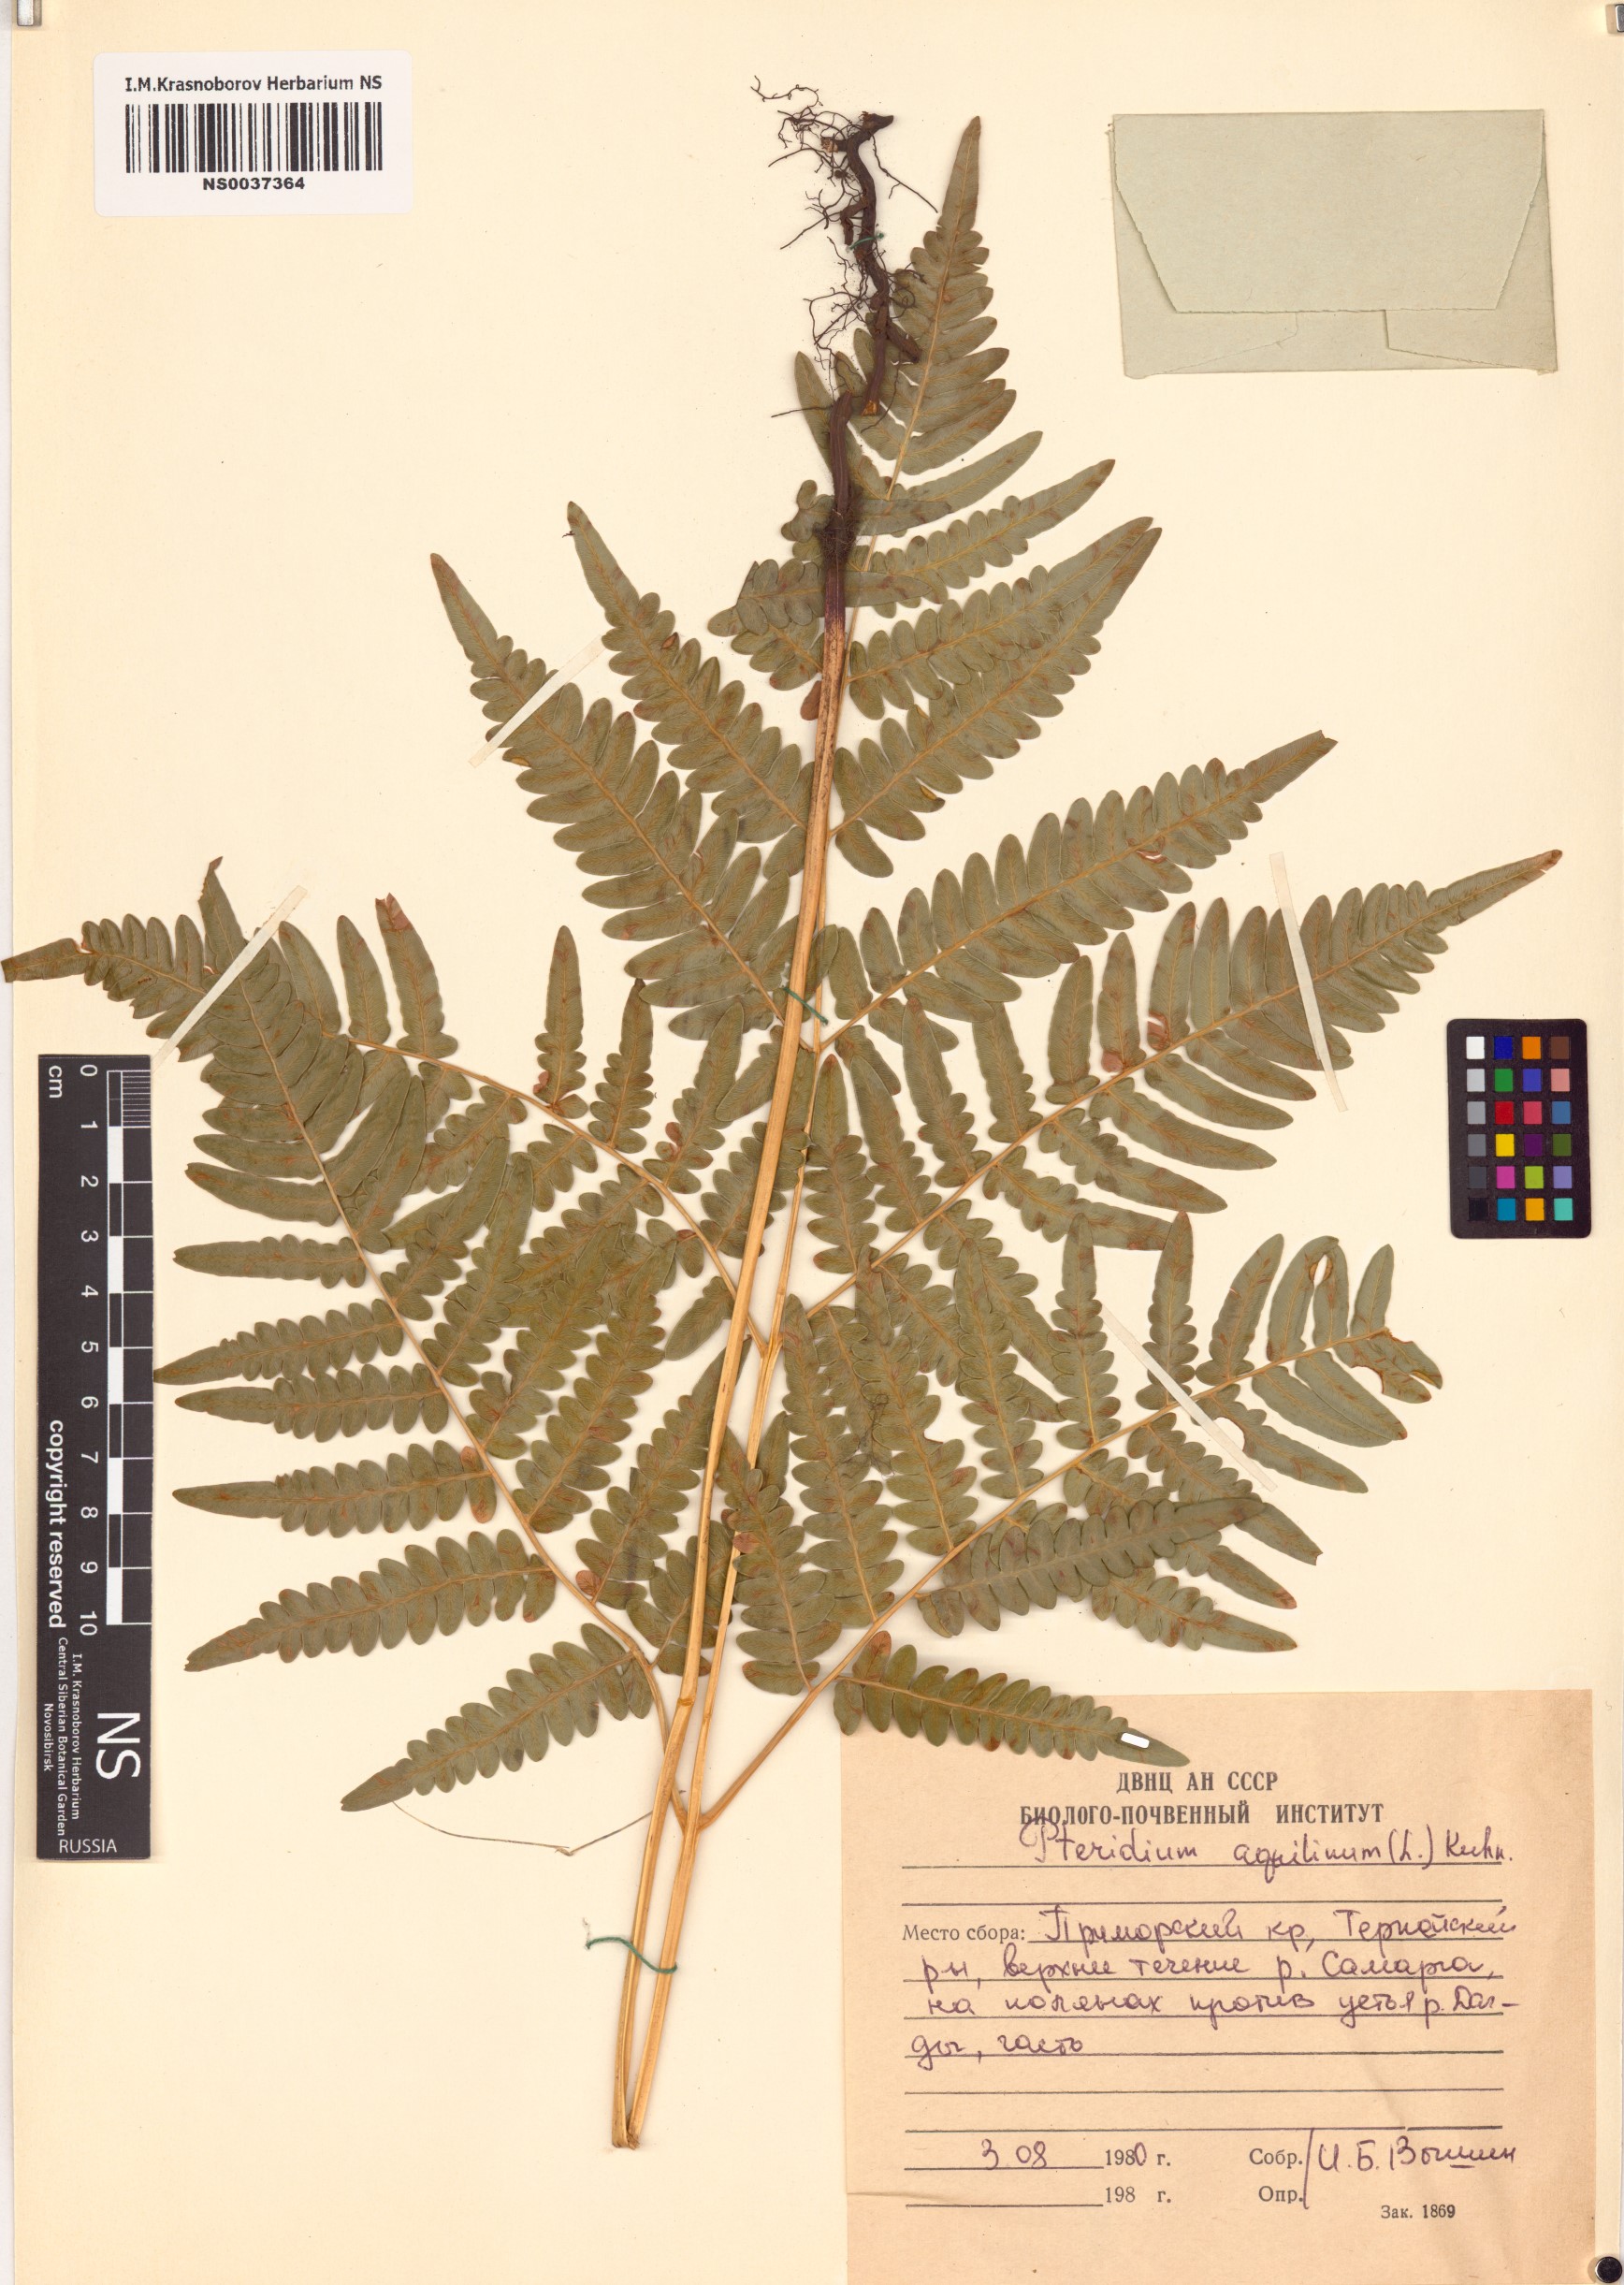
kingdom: Plantae
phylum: Tracheophyta
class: Polypodiopsida
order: Polypodiales
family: Dennstaedtiaceae
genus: Pteridium
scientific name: Pteridium aquilinum
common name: Bracken
